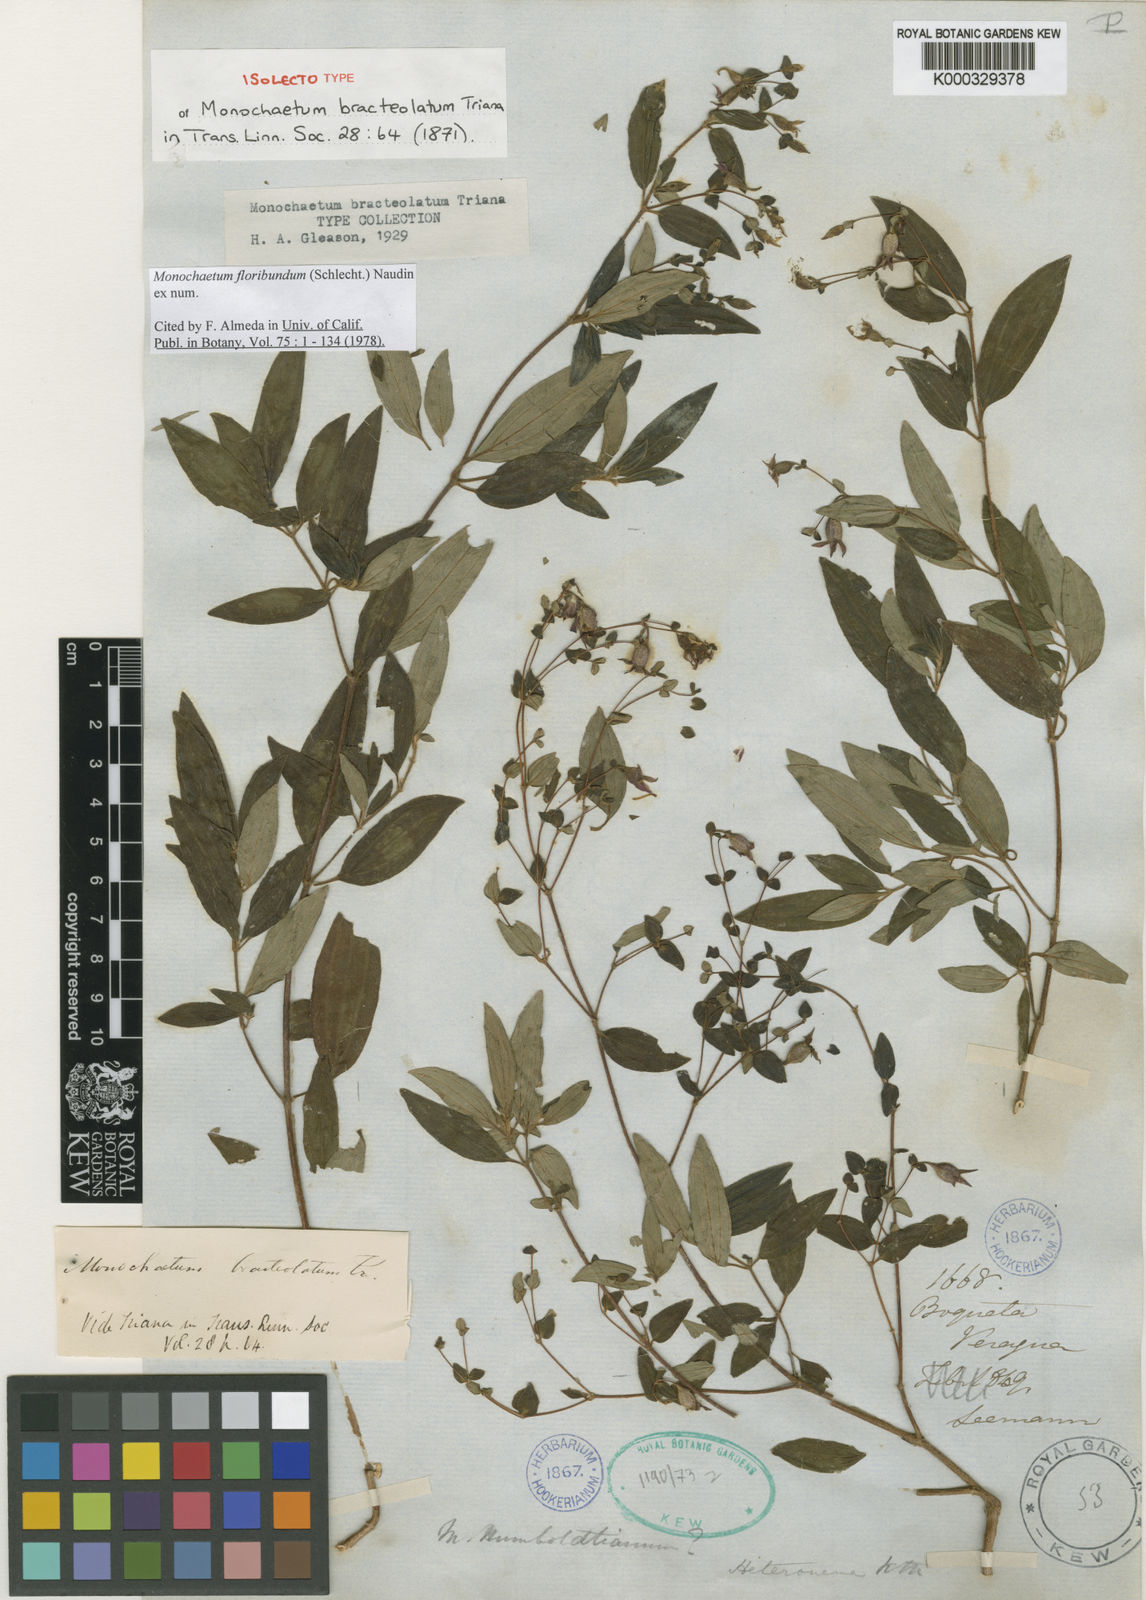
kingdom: Plantae
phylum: Tracheophyta
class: Magnoliopsida
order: Myrtales
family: Melastomataceae
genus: Monochaetum
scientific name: Monochaetum floribundum
